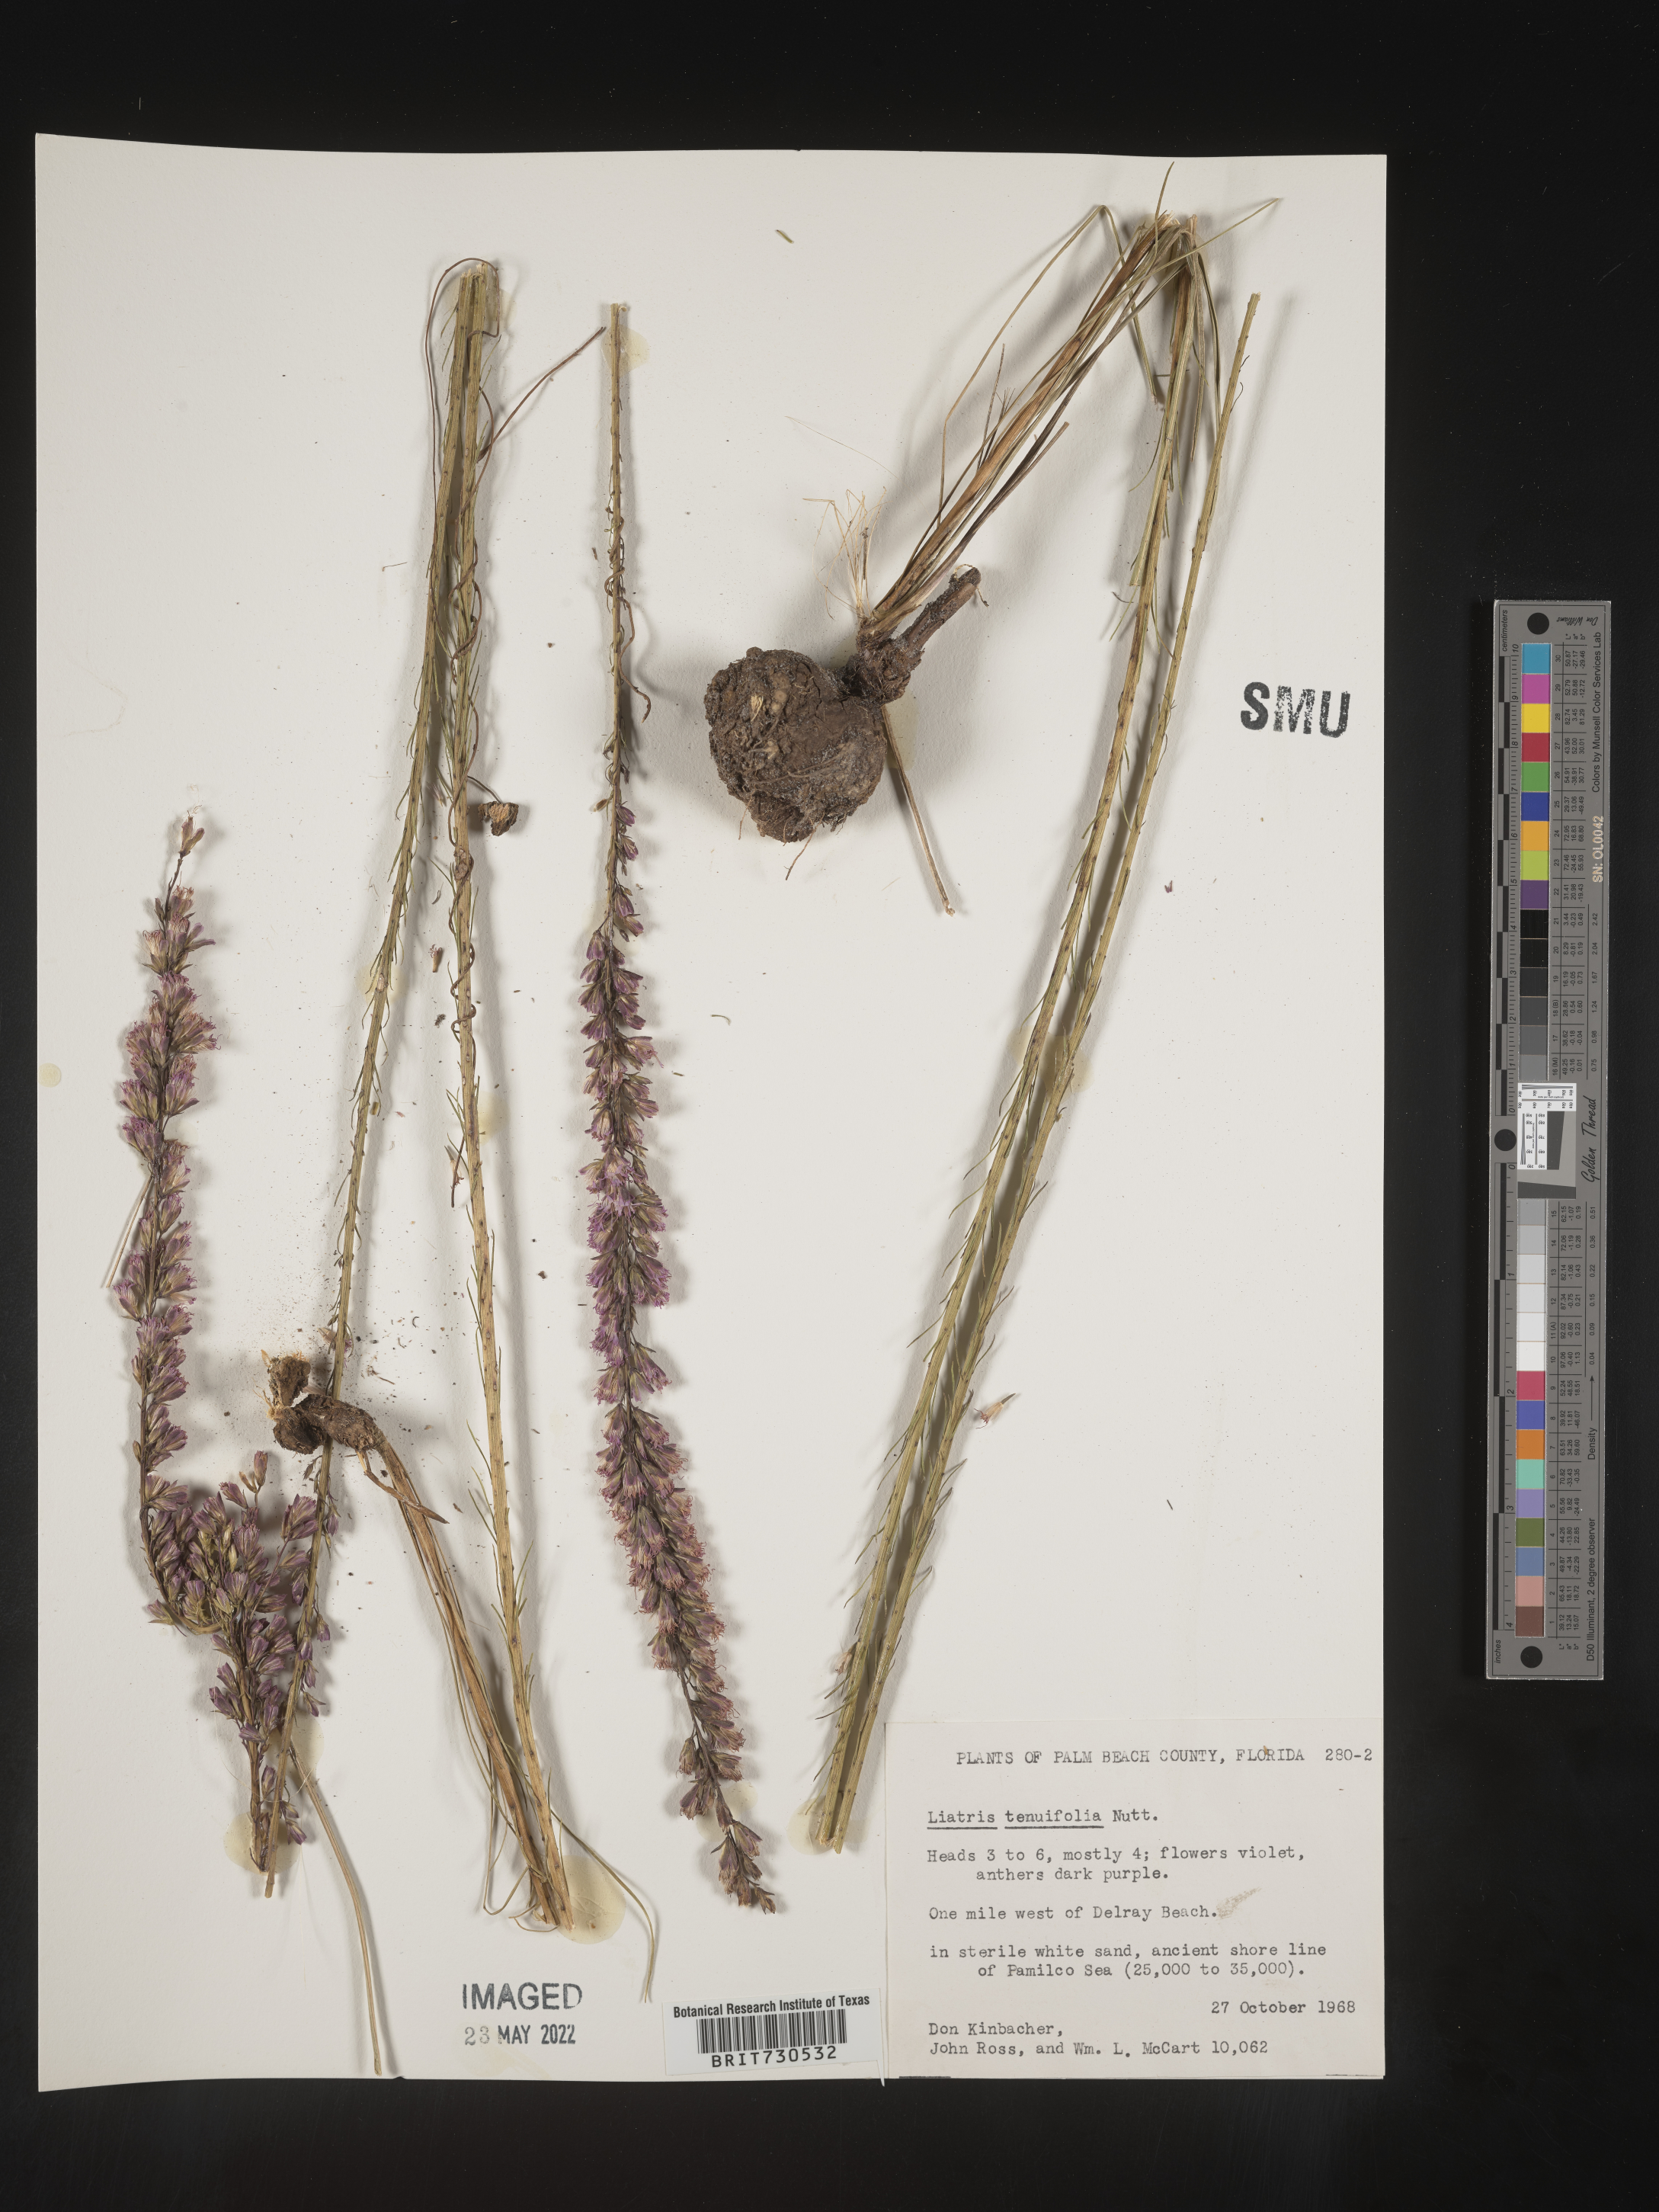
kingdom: Plantae
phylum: Tracheophyta
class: Magnoliopsida
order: Asterales
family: Asteraceae
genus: Liatris
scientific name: Liatris laevigata
